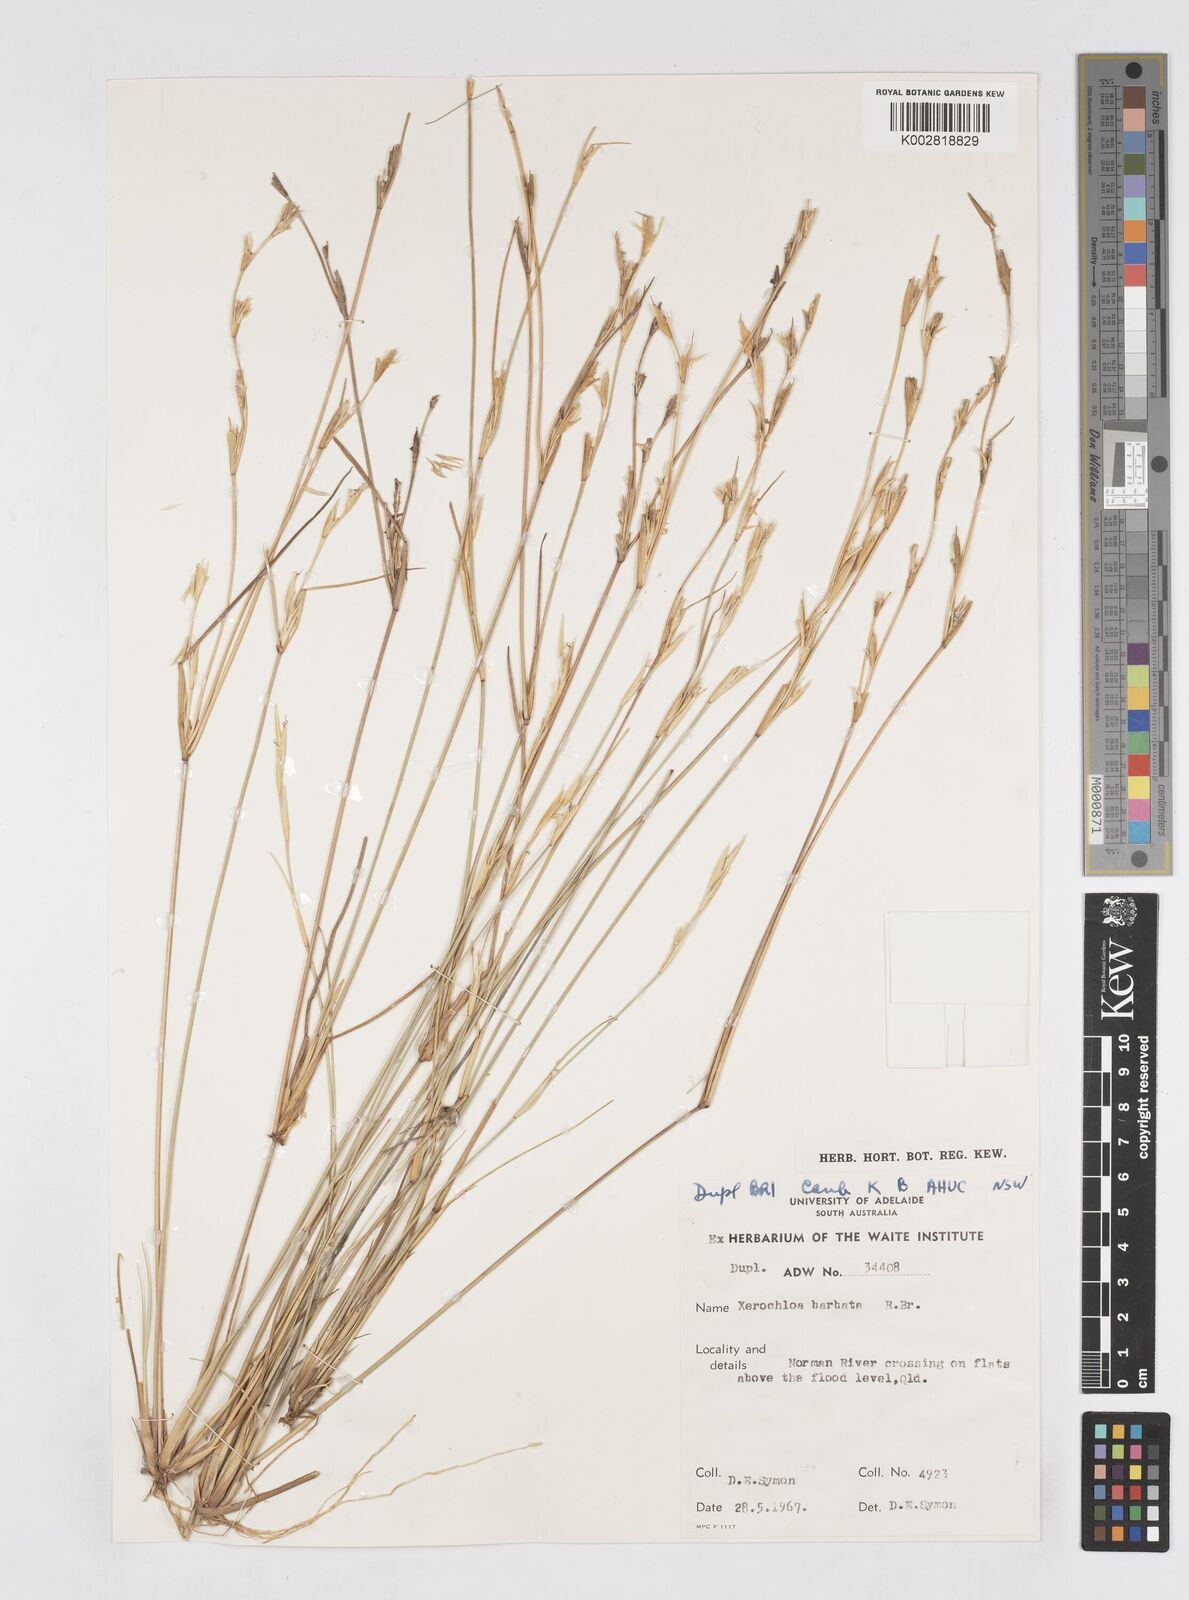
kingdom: Plantae
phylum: Tracheophyta
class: Liliopsida
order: Poales
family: Poaceae
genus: Xerochloa
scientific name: Xerochloa barbata
